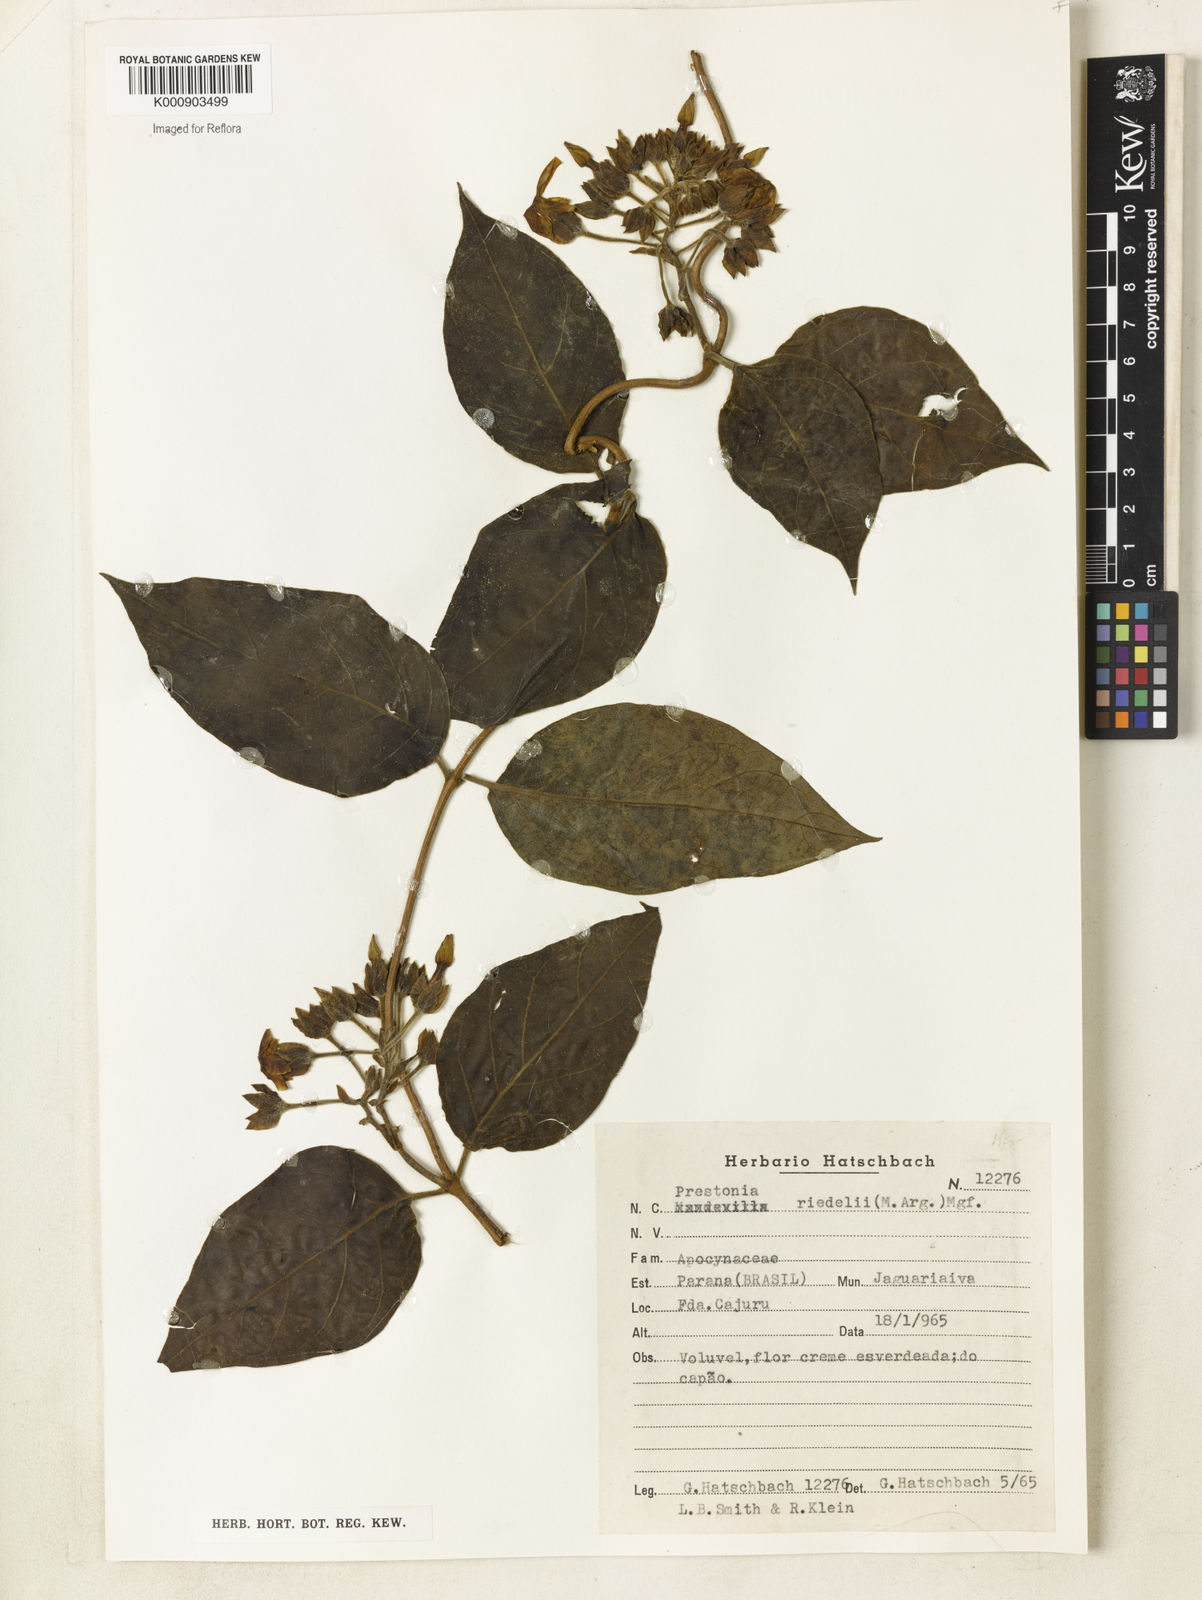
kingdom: Plantae
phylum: Tracheophyta
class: Magnoliopsida
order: Gentianales
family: Apocynaceae
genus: Prestonia
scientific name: Prestonia
